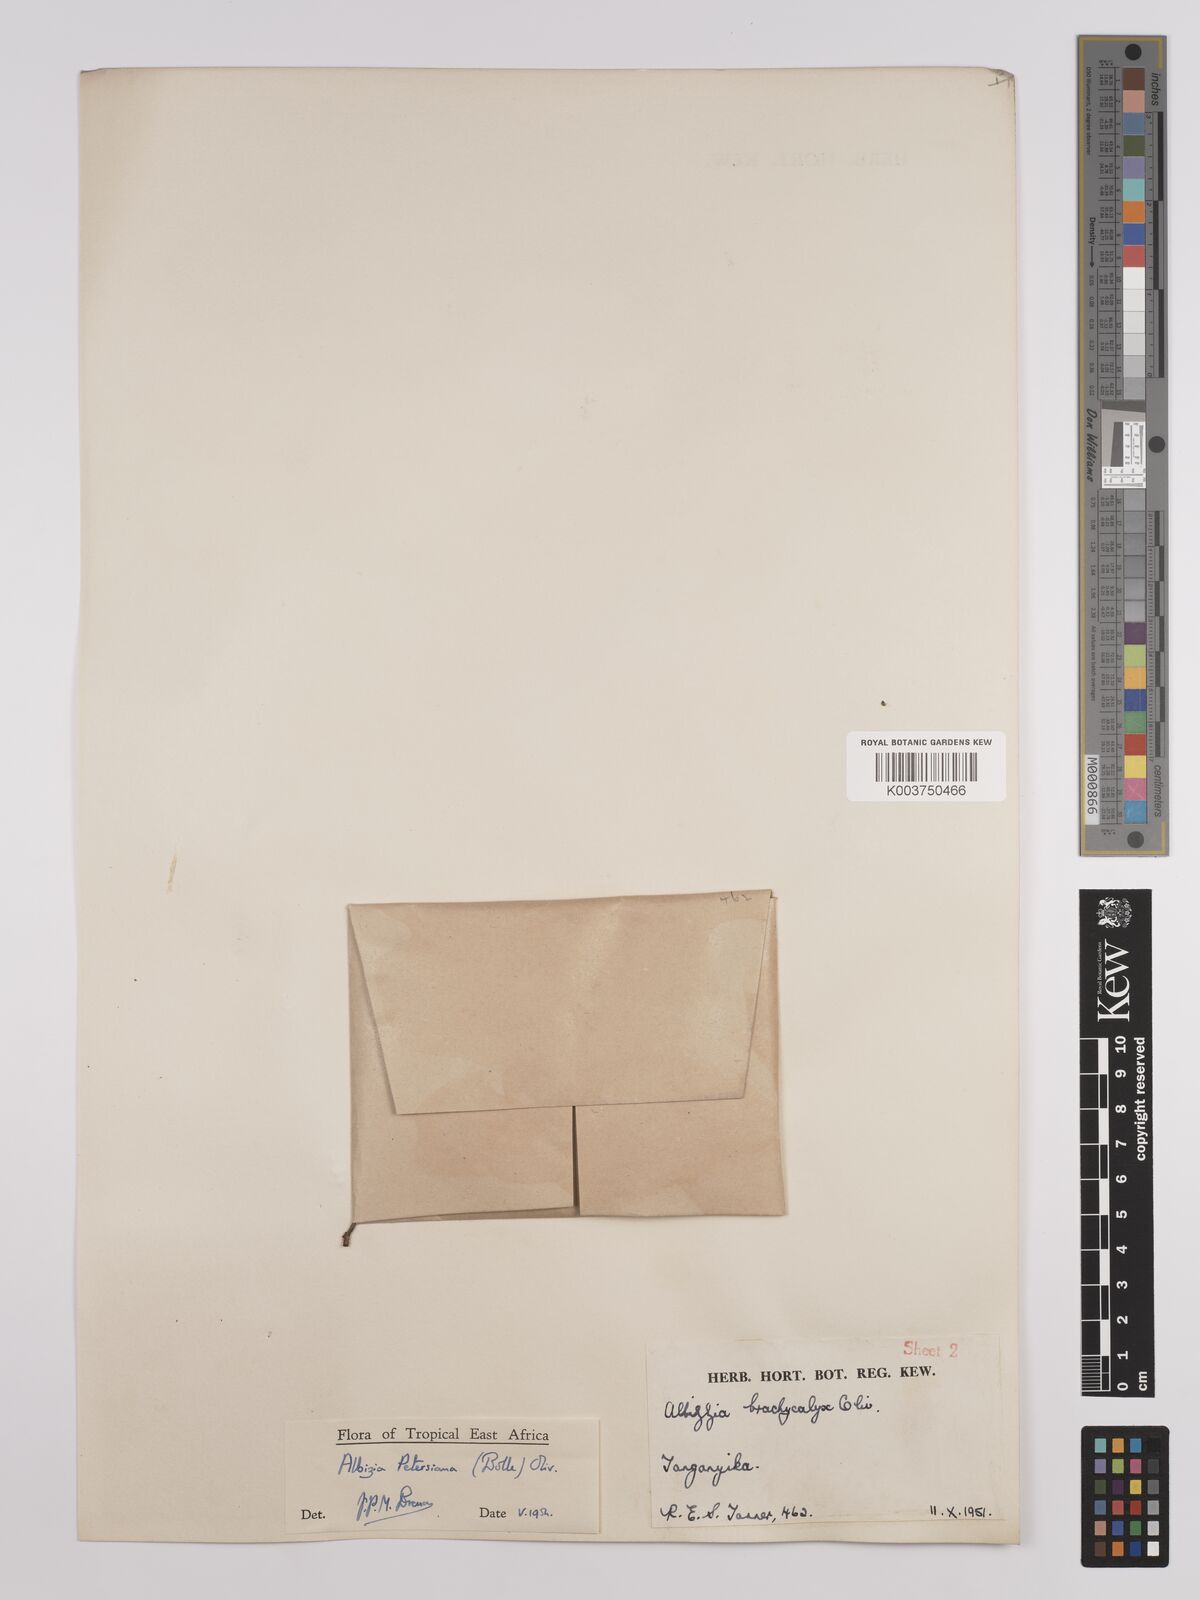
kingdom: Plantae
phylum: Tracheophyta
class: Magnoliopsida
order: Fabales
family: Fabaceae
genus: Albizia
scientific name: Albizia petersiana
